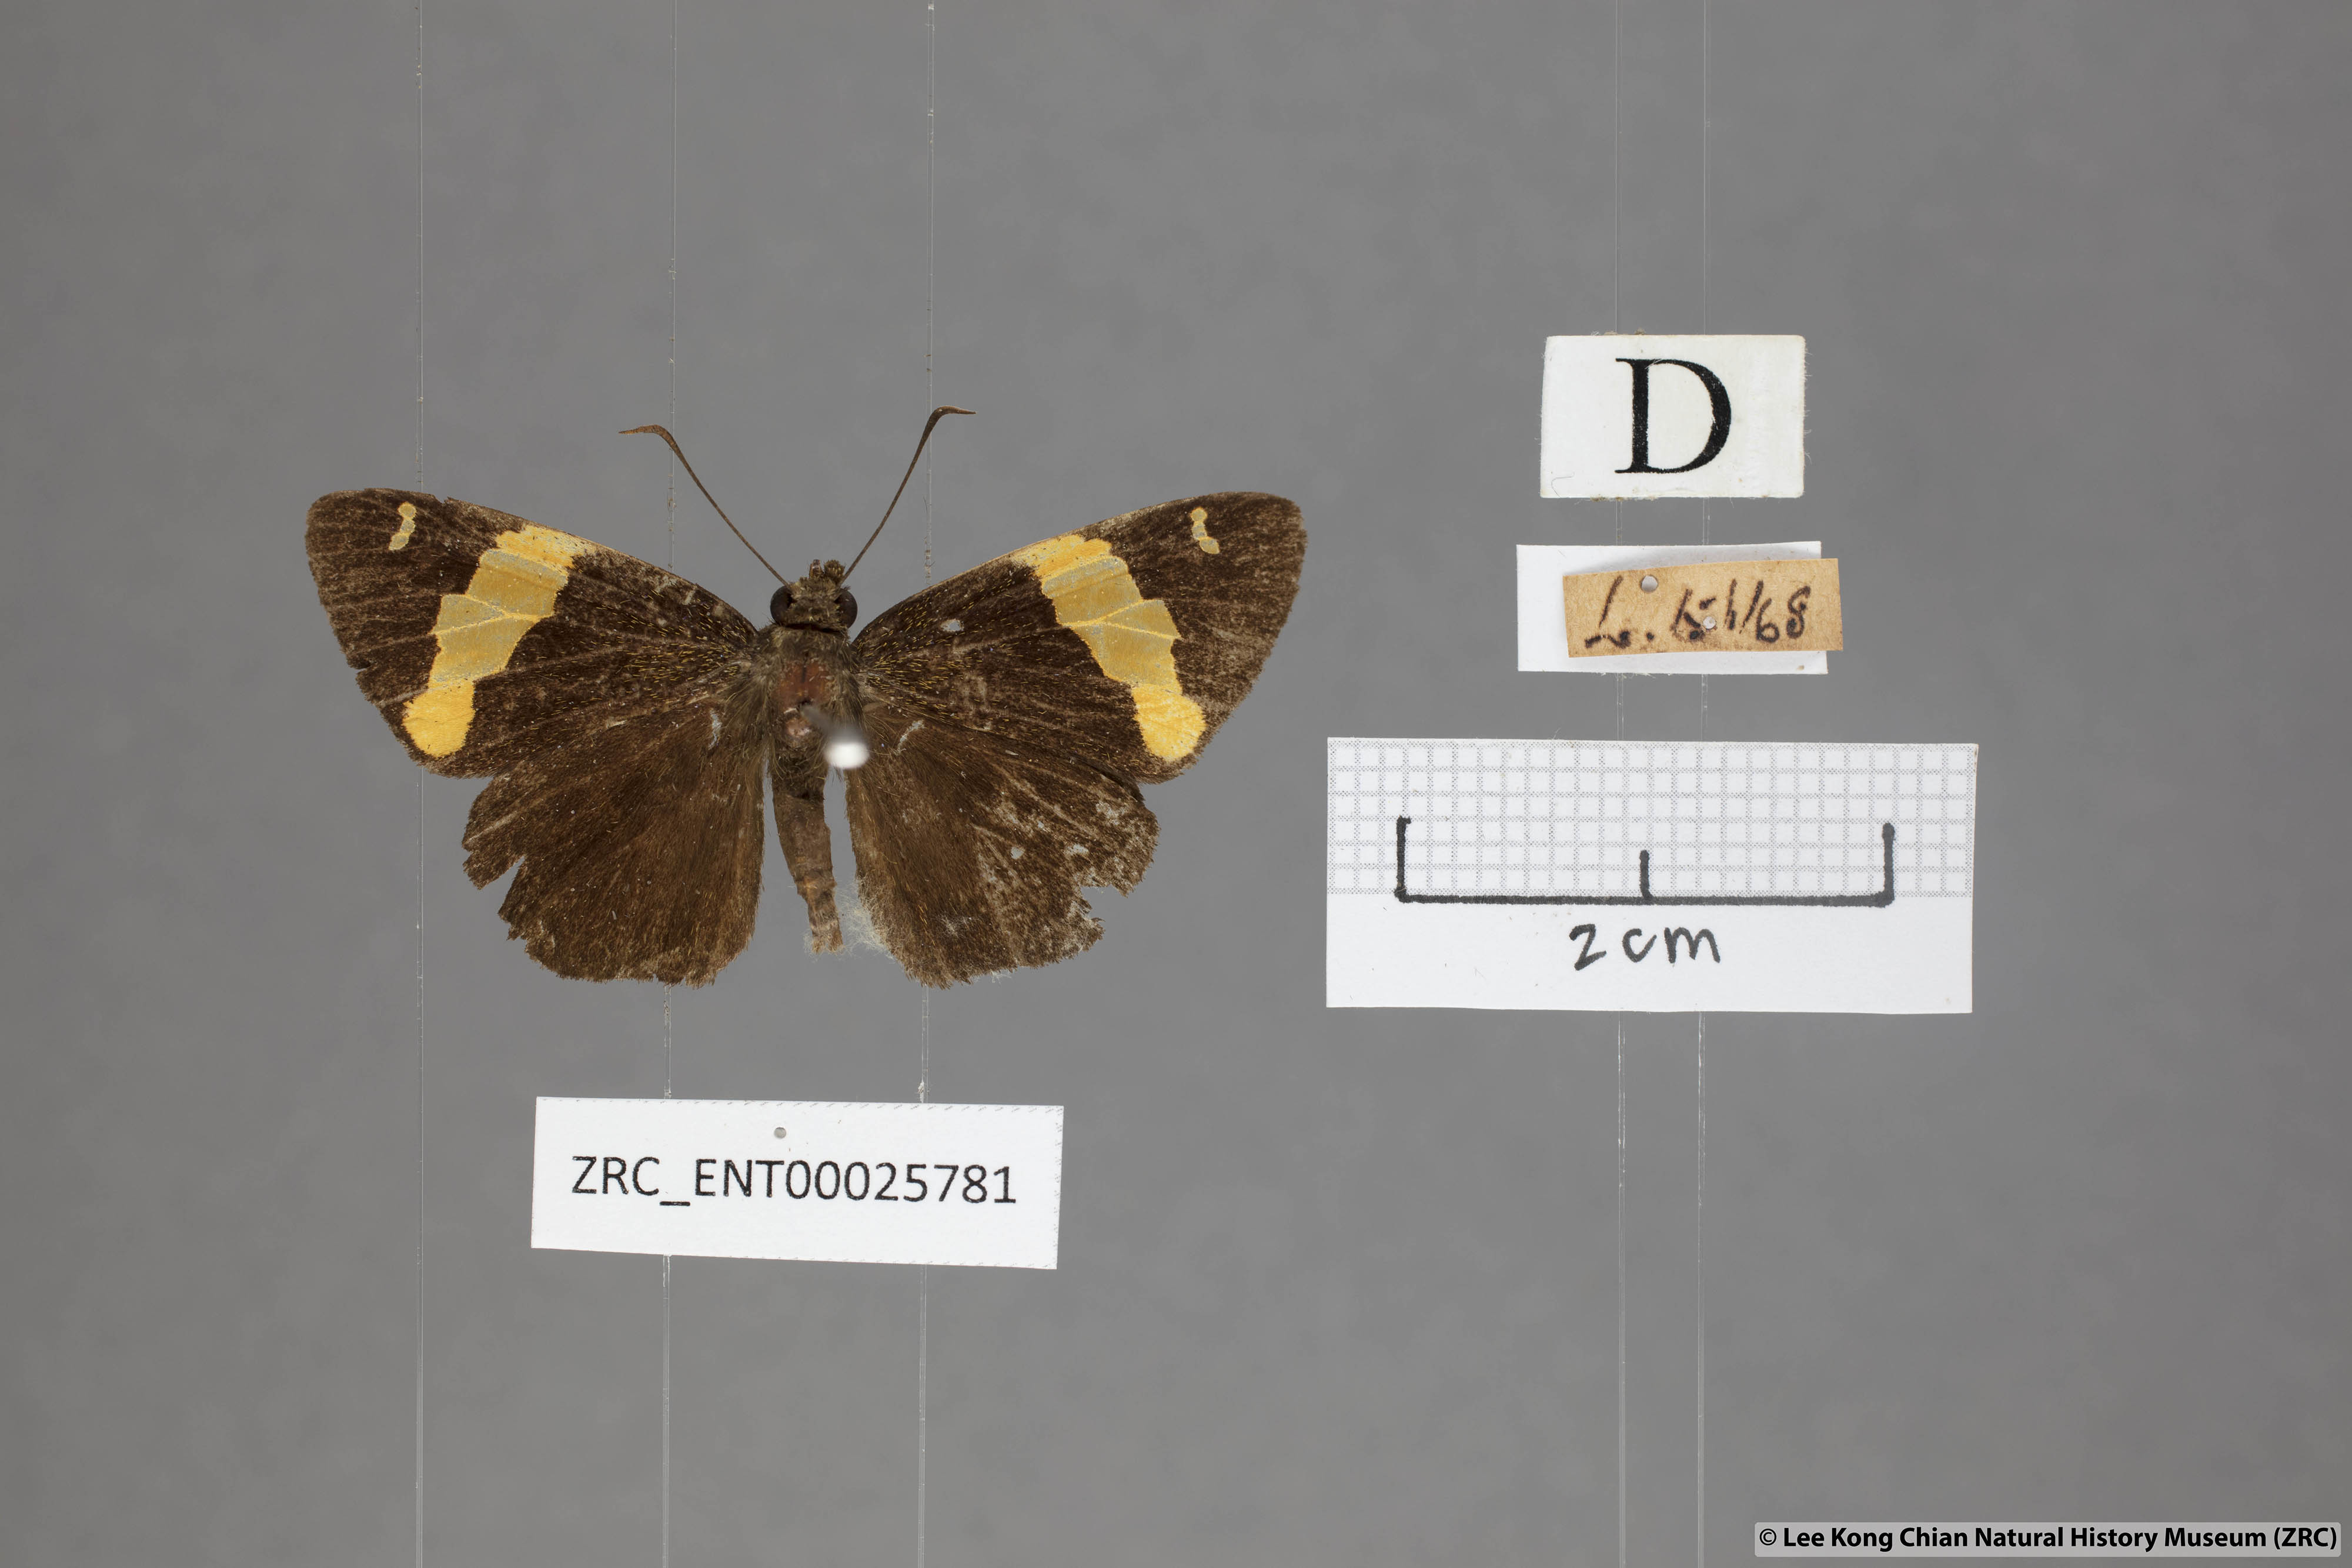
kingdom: Animalia
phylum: Arthropoda
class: Insecta
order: Lepidoptera
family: Hesperiidae
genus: Celaenorrhinus
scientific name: Celaenorrhinus aurivittata
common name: Dark yellow-banded flat
